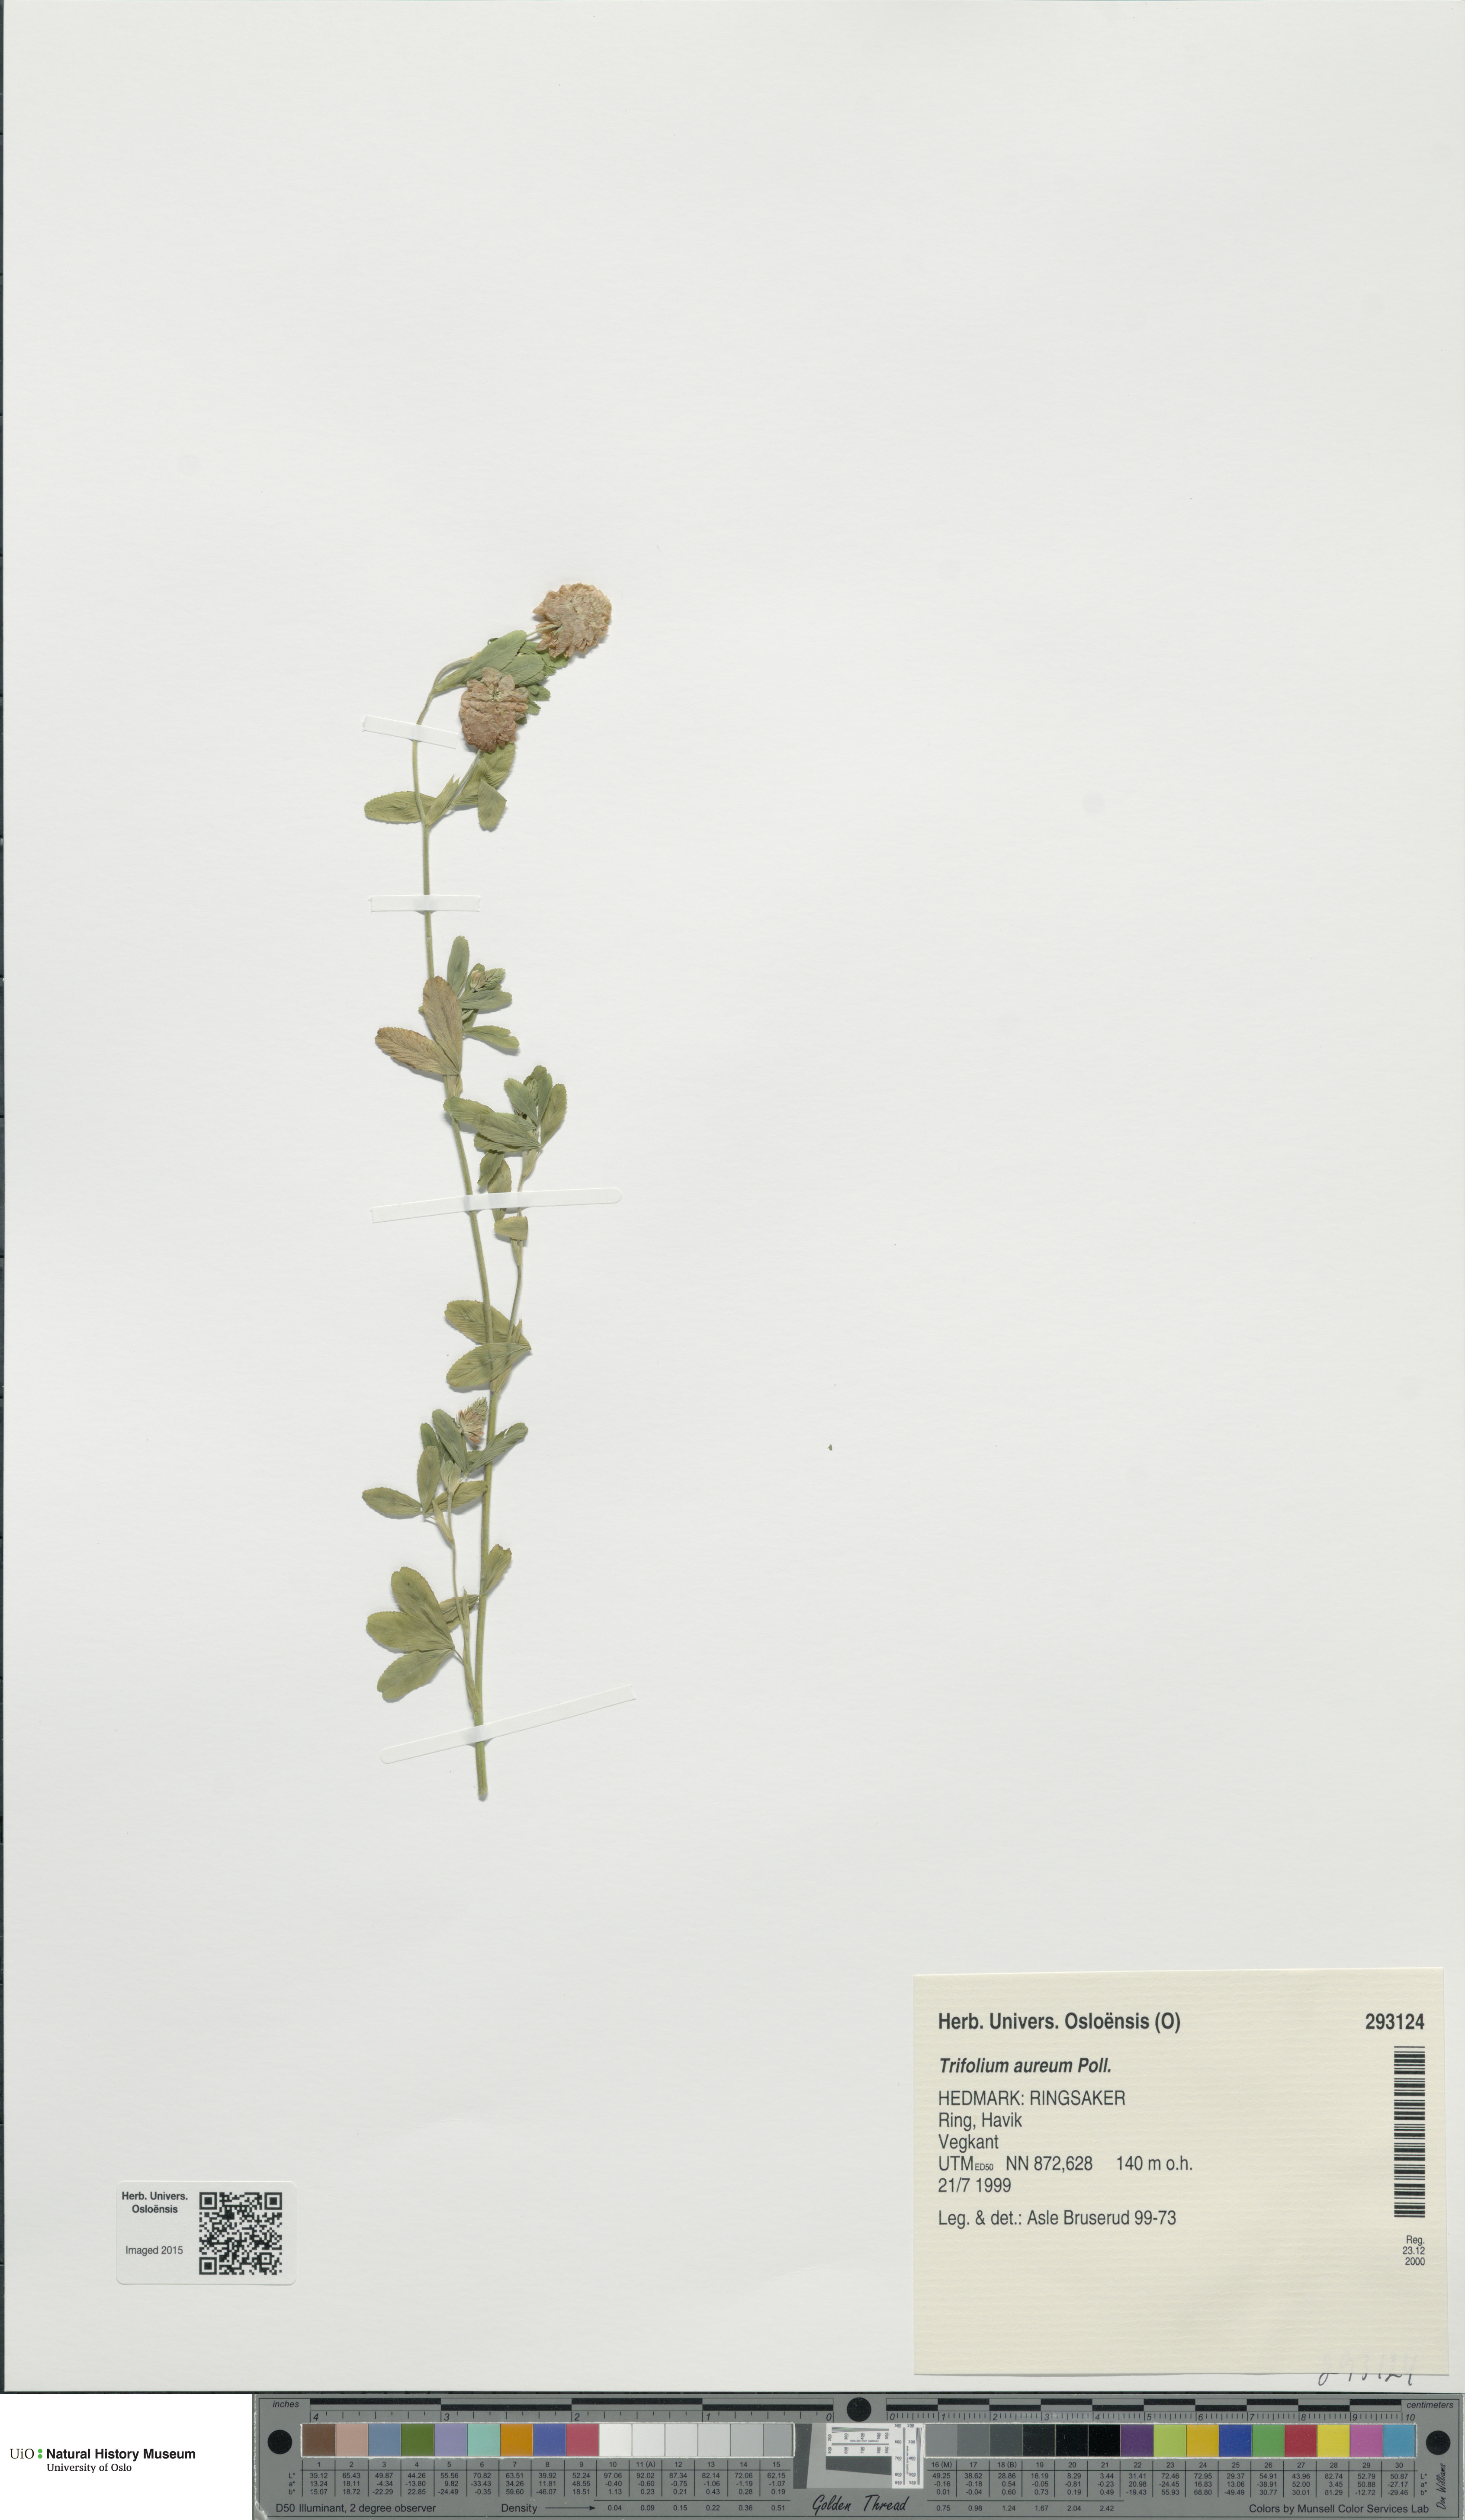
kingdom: Plantae
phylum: Tracheophyta
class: Magnoliopsida
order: Fabales
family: Fabaceae
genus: Trifolium
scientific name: Trifolium aureum
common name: Golden clover
